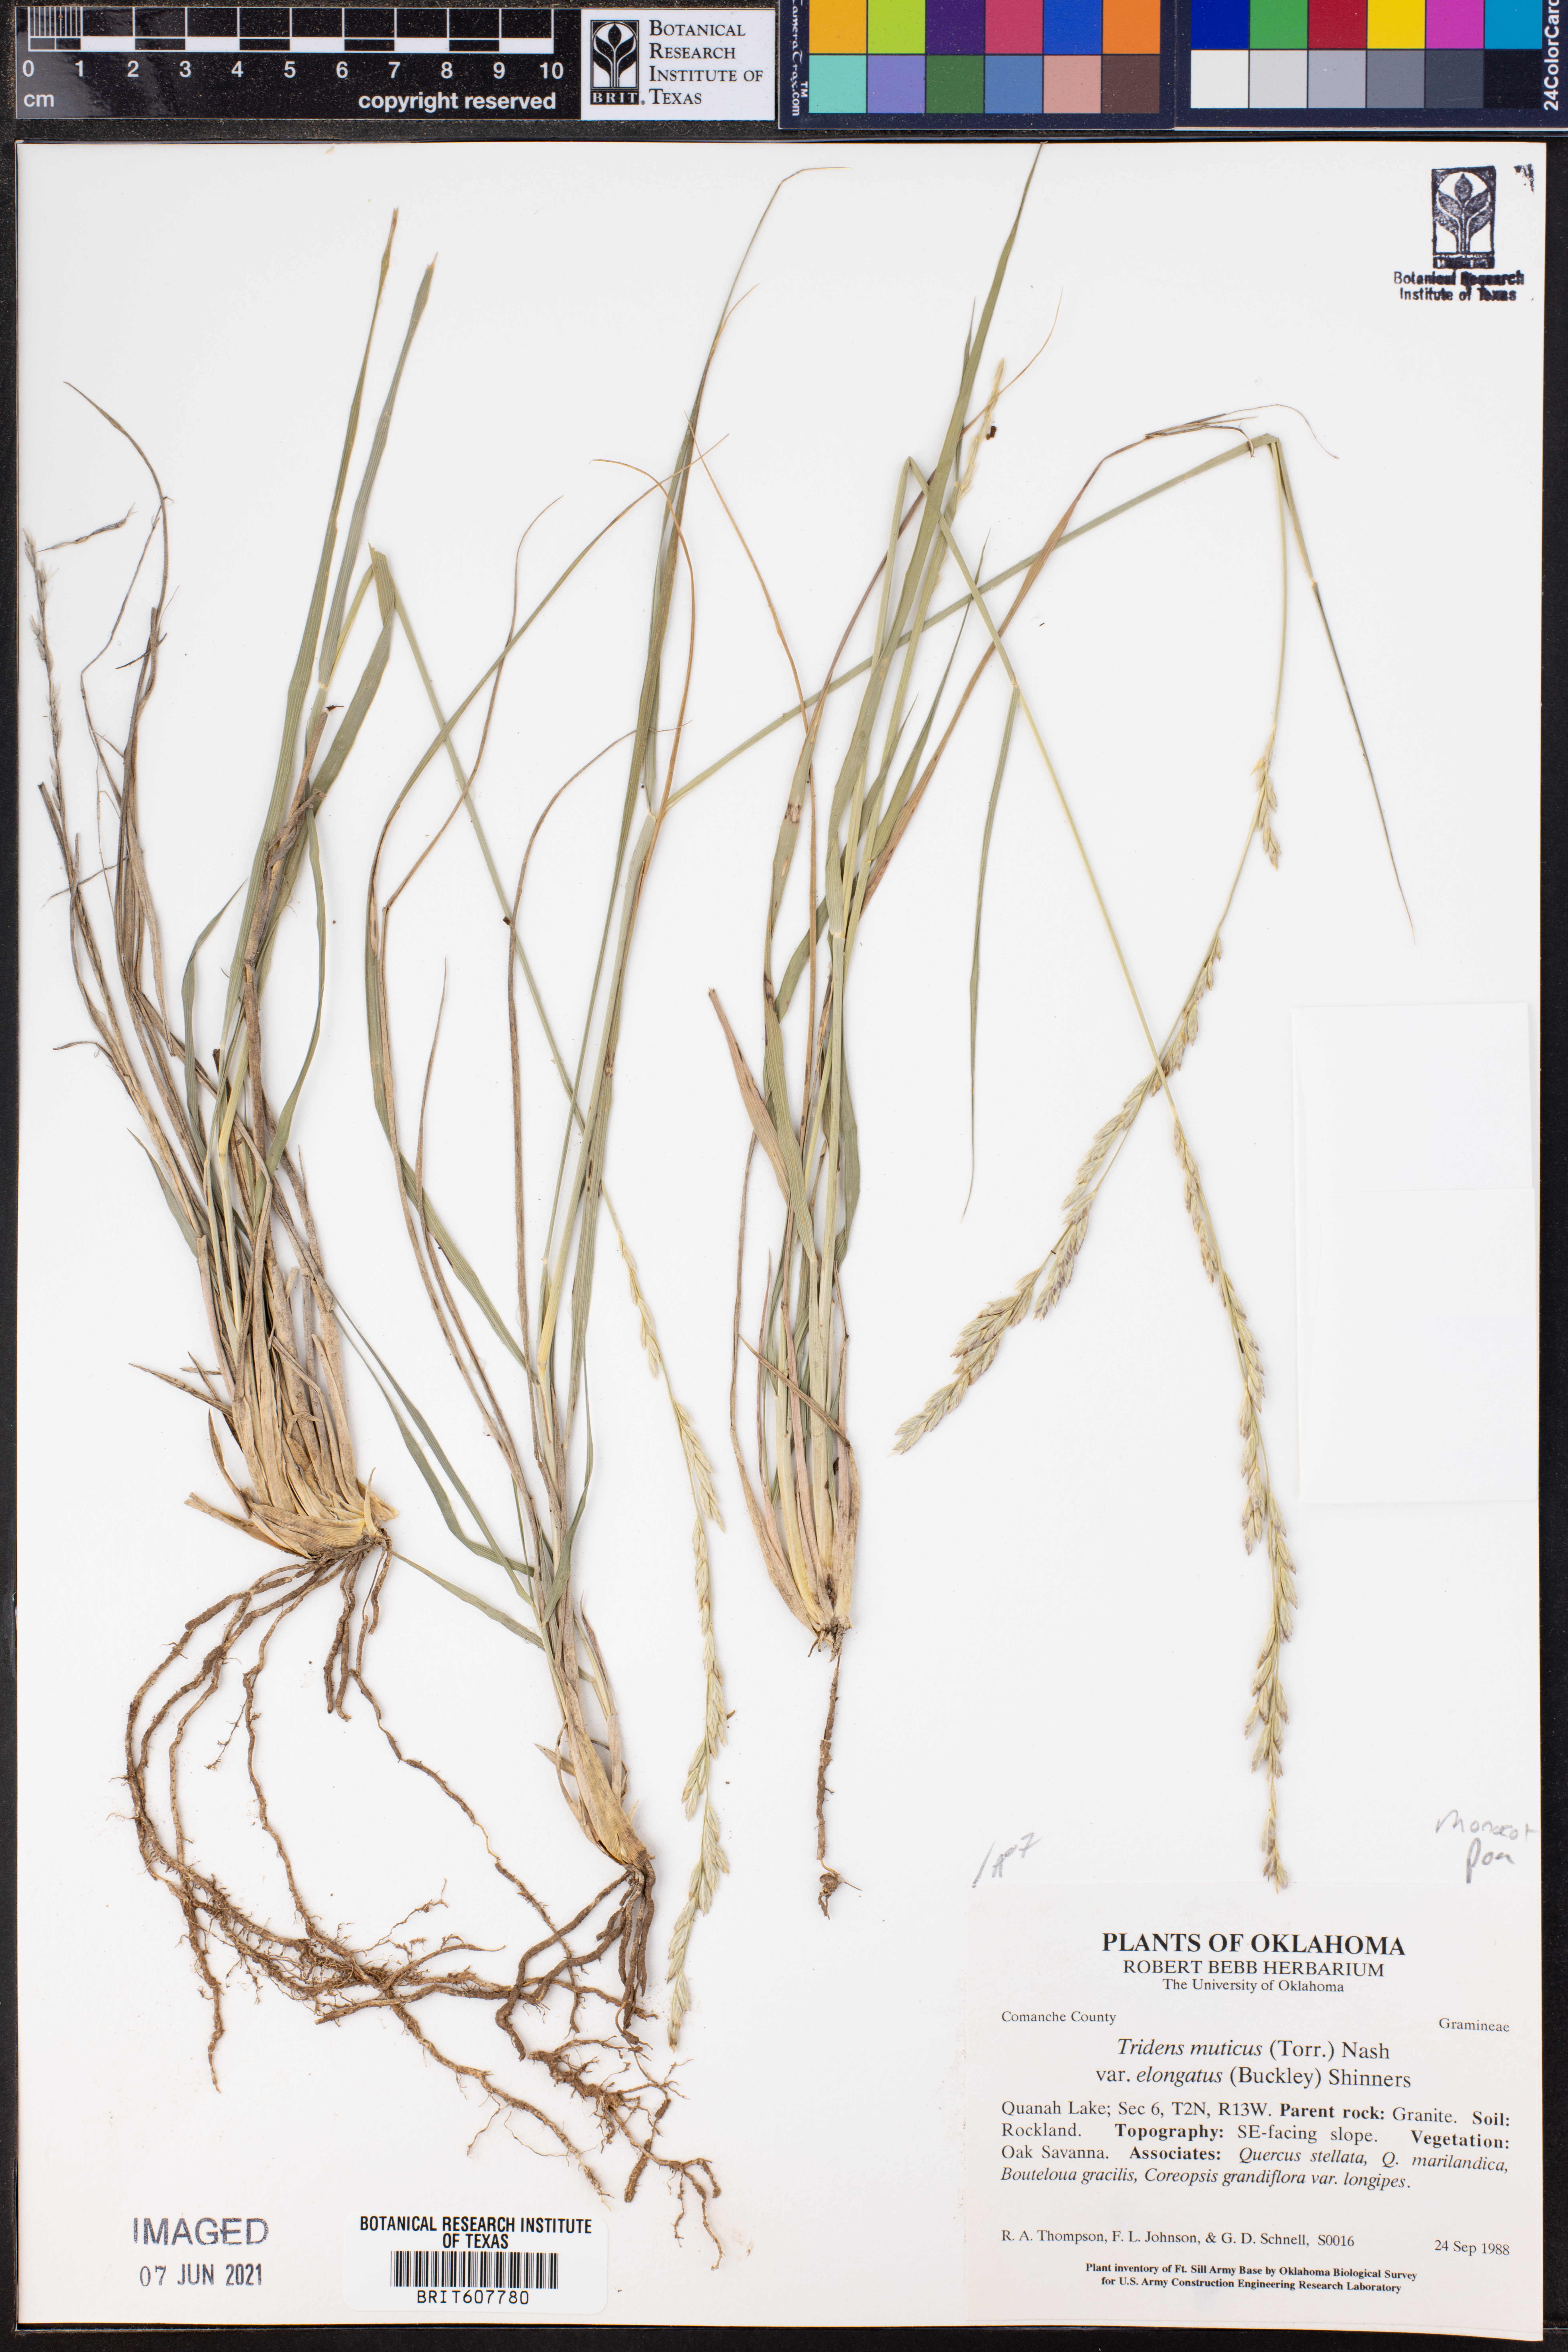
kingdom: Plantae
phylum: Tracheophyta
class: Liliopsida
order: Poales
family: Poaceae
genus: Tridentopsis
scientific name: Tridentopsis mutica
